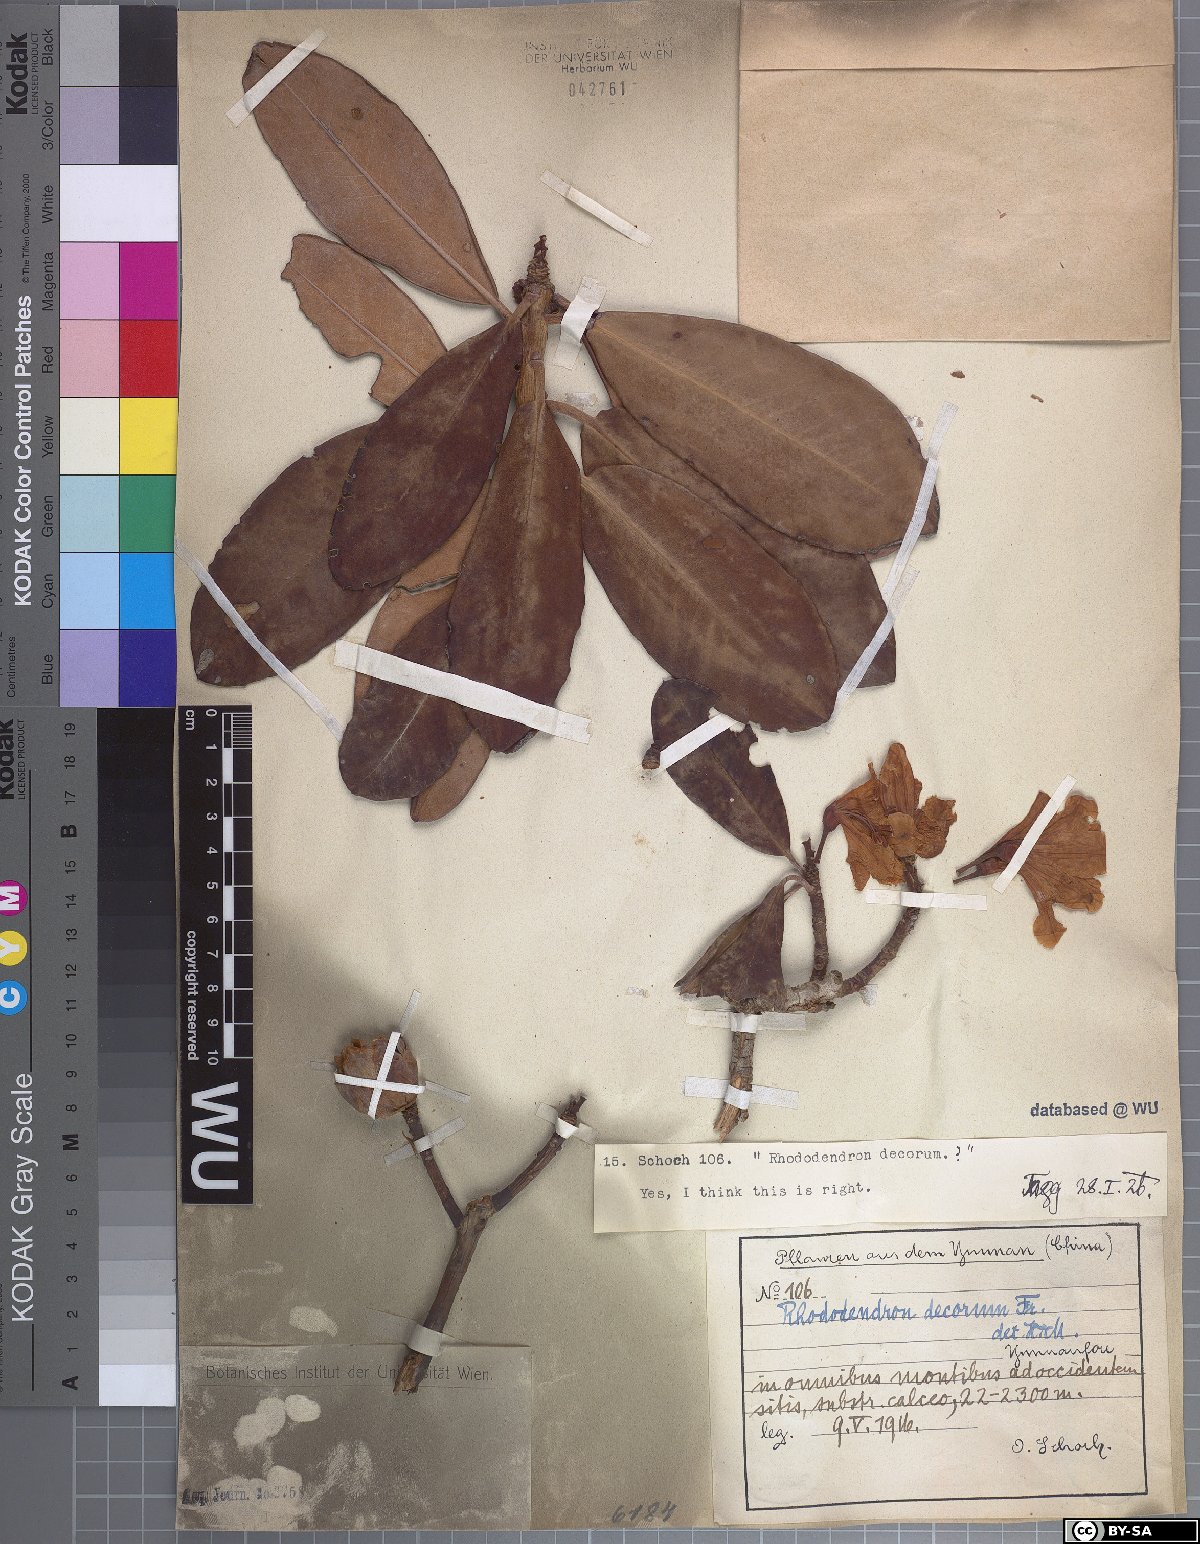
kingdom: Plantae
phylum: Tracheophyta
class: Magnoliopsida
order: Ericales
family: Ericaceae
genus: Rhododendron
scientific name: Rhododendron decorum
